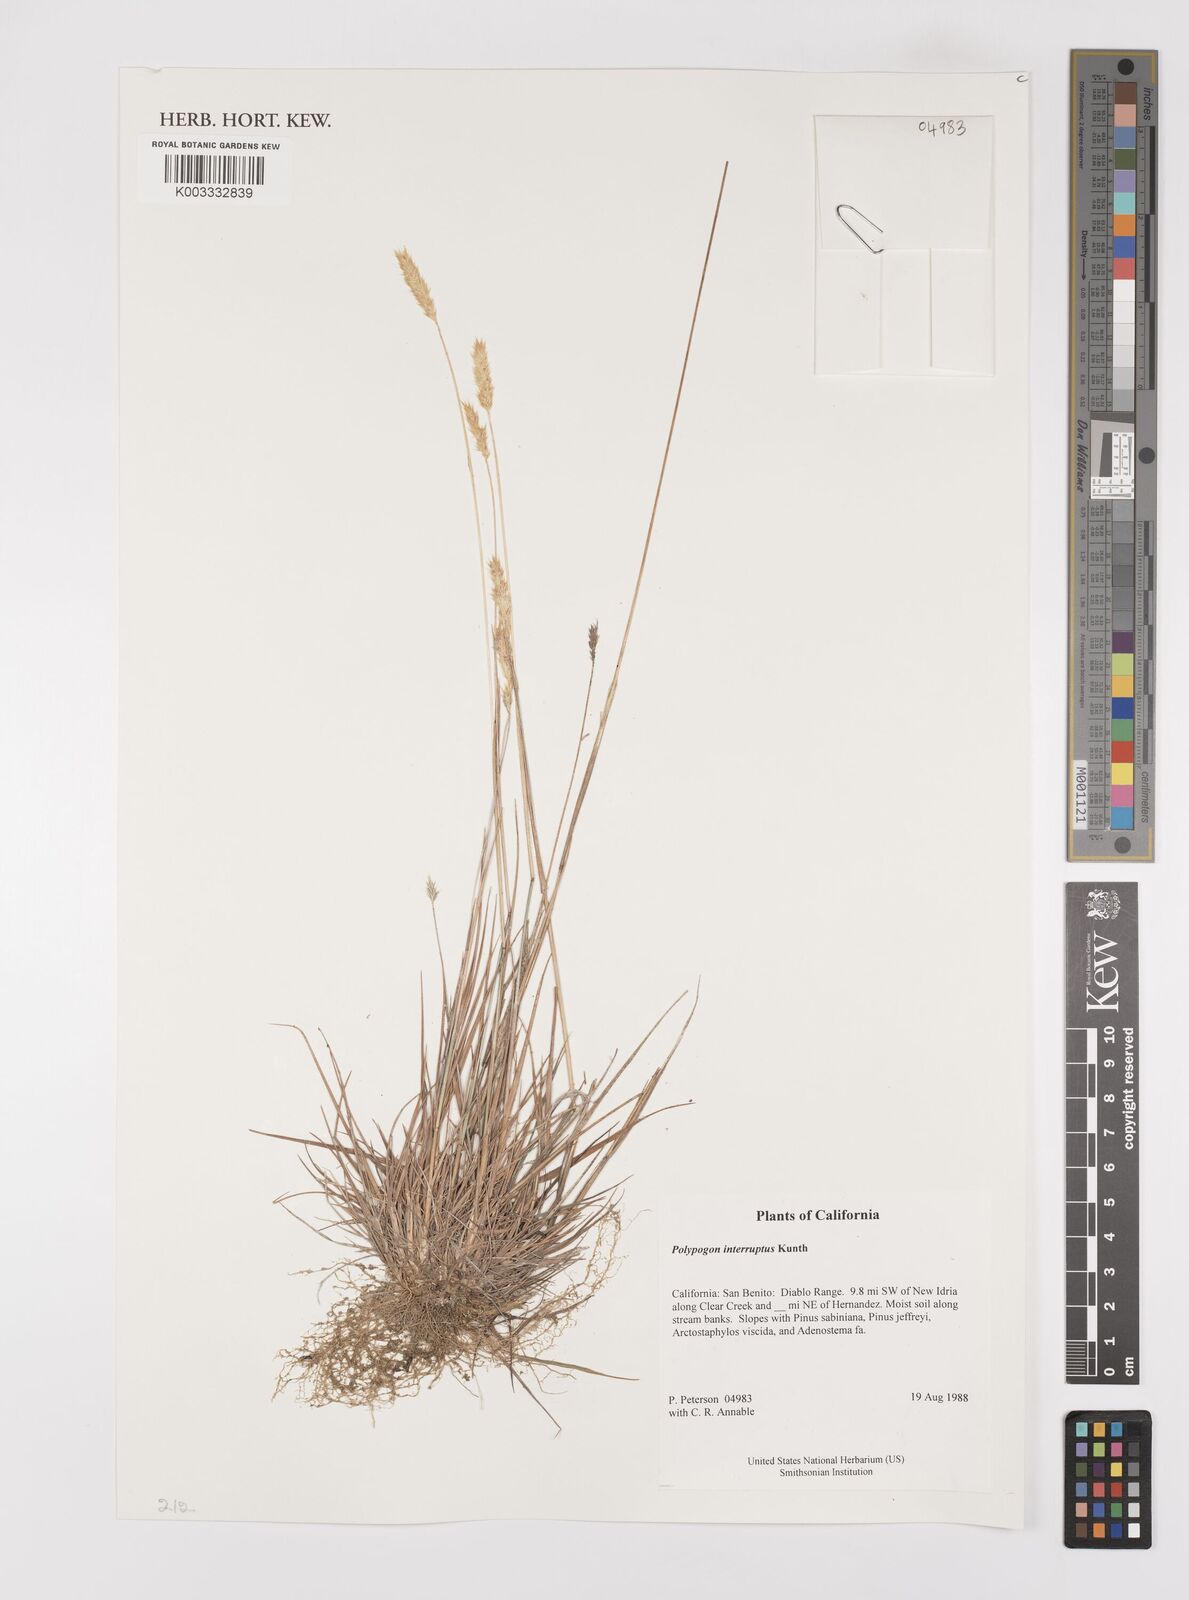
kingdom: Plantae
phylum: Tracheophyta
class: Liliopsida
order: Poales
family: Poaceae
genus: Polypogon
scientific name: Polypogon interruptus
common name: Ditch polypogon
